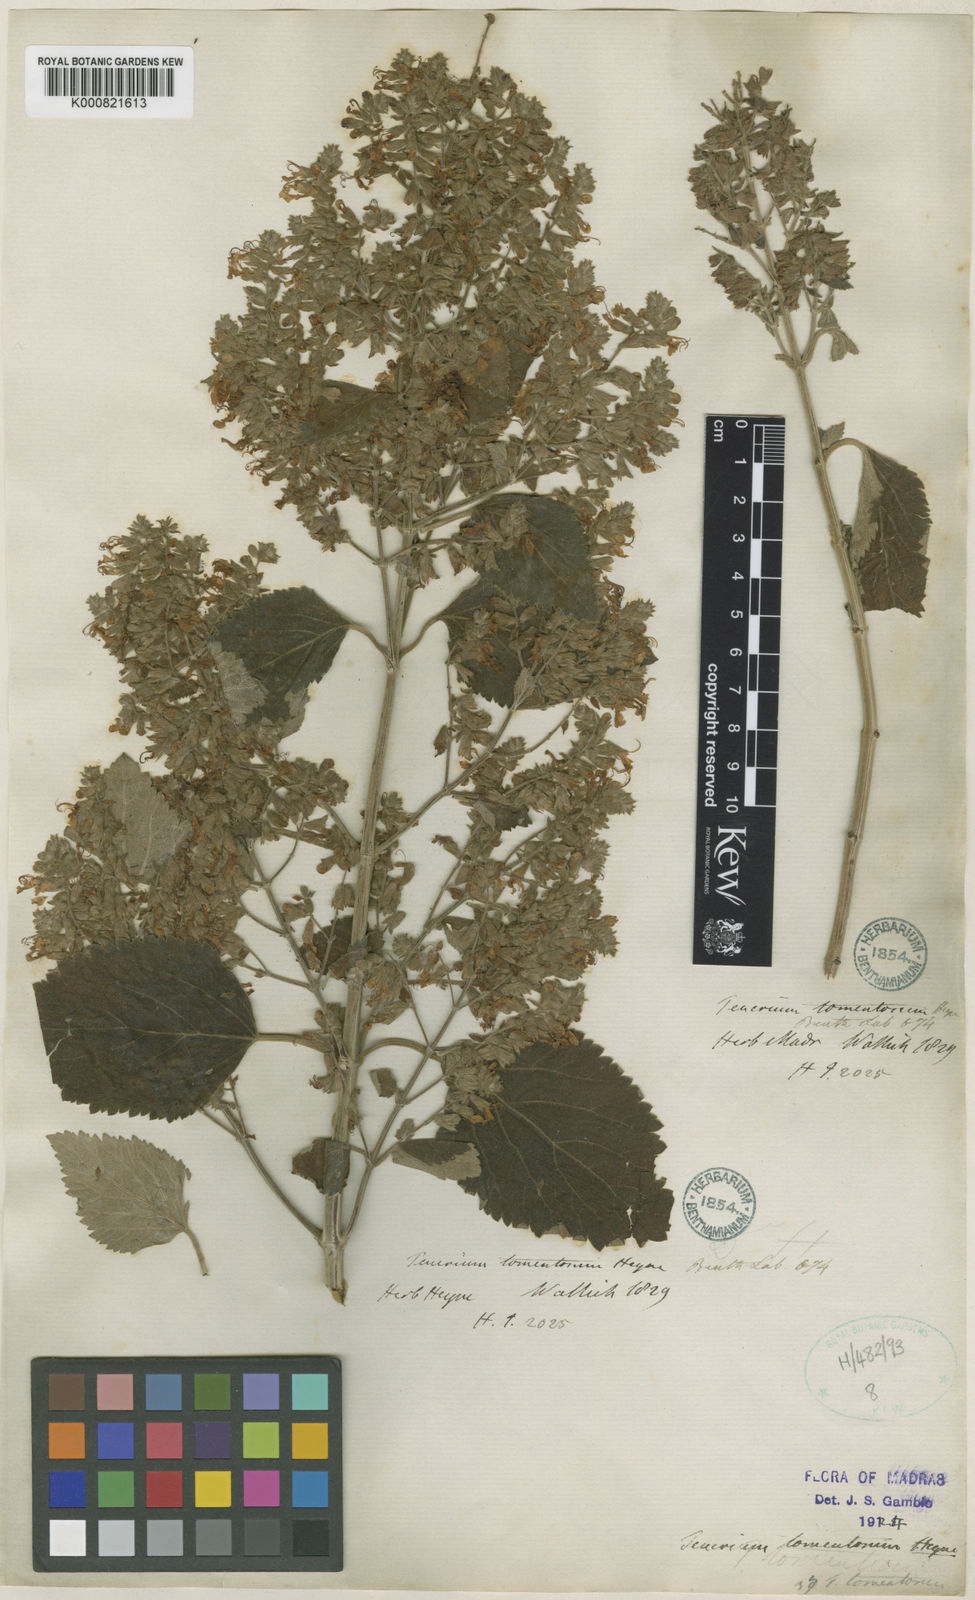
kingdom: Plantae
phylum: Tracheophyta
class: Magnoliopsida
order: Lamiales
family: Lamiaceae
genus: Teucrium
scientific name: Teucrium heynei
